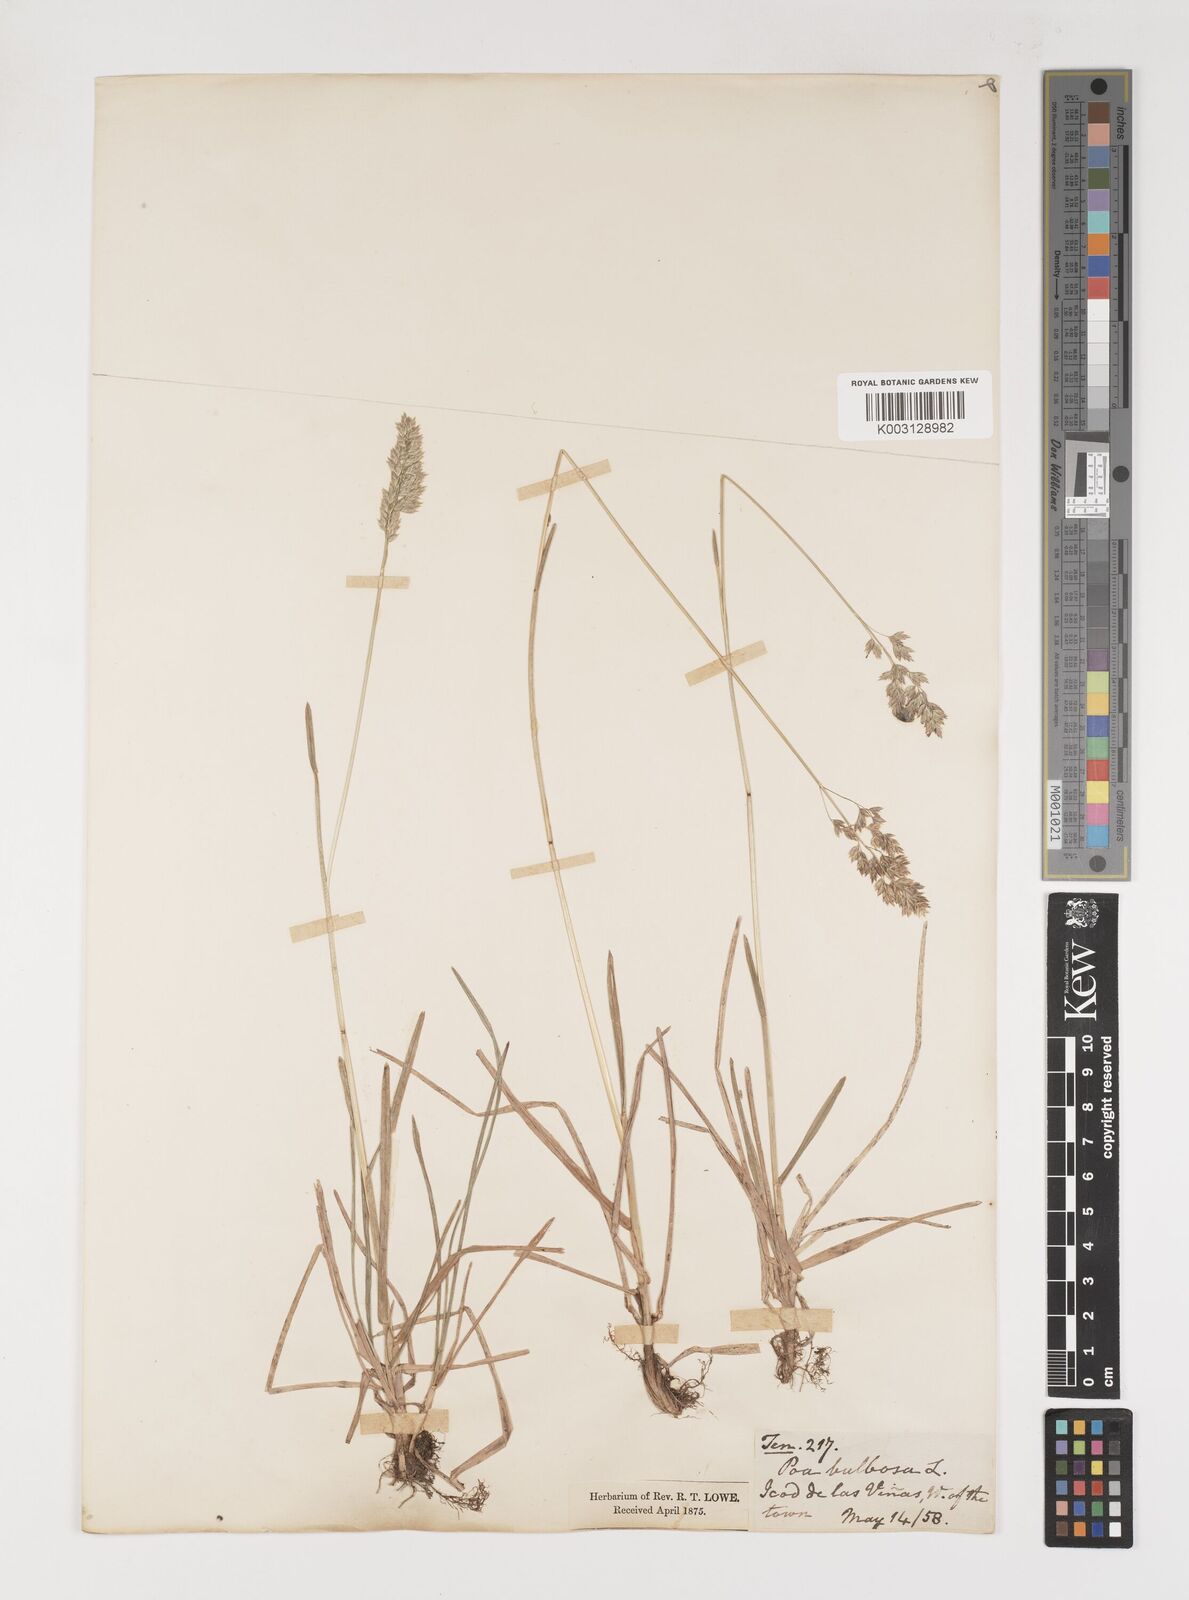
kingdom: Plantae
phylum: Tracheophyta
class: Liliopsida
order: Poales
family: Poaceae
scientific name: Poaceae
